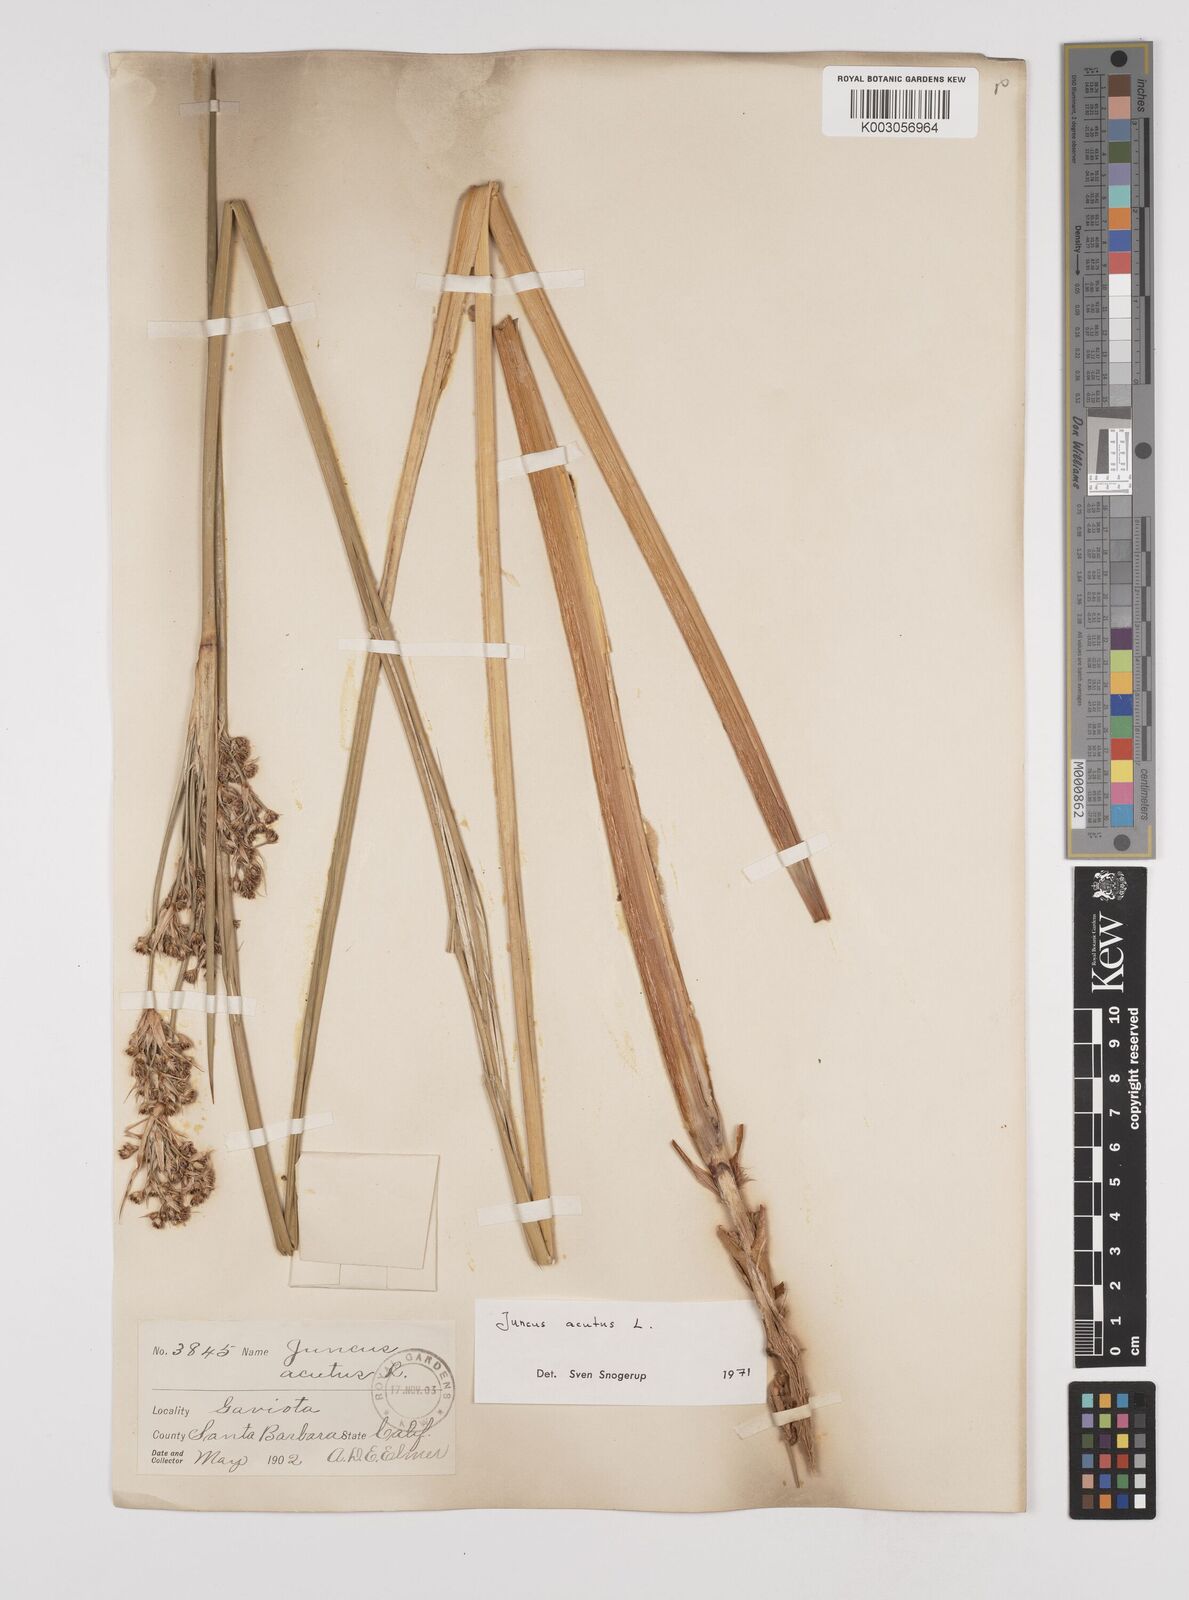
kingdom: Plantae
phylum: Tracheophyta
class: Liliopsida
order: Poales
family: Juncaceae
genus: Juncus
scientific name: Juncus acutus
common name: Sharp rush
